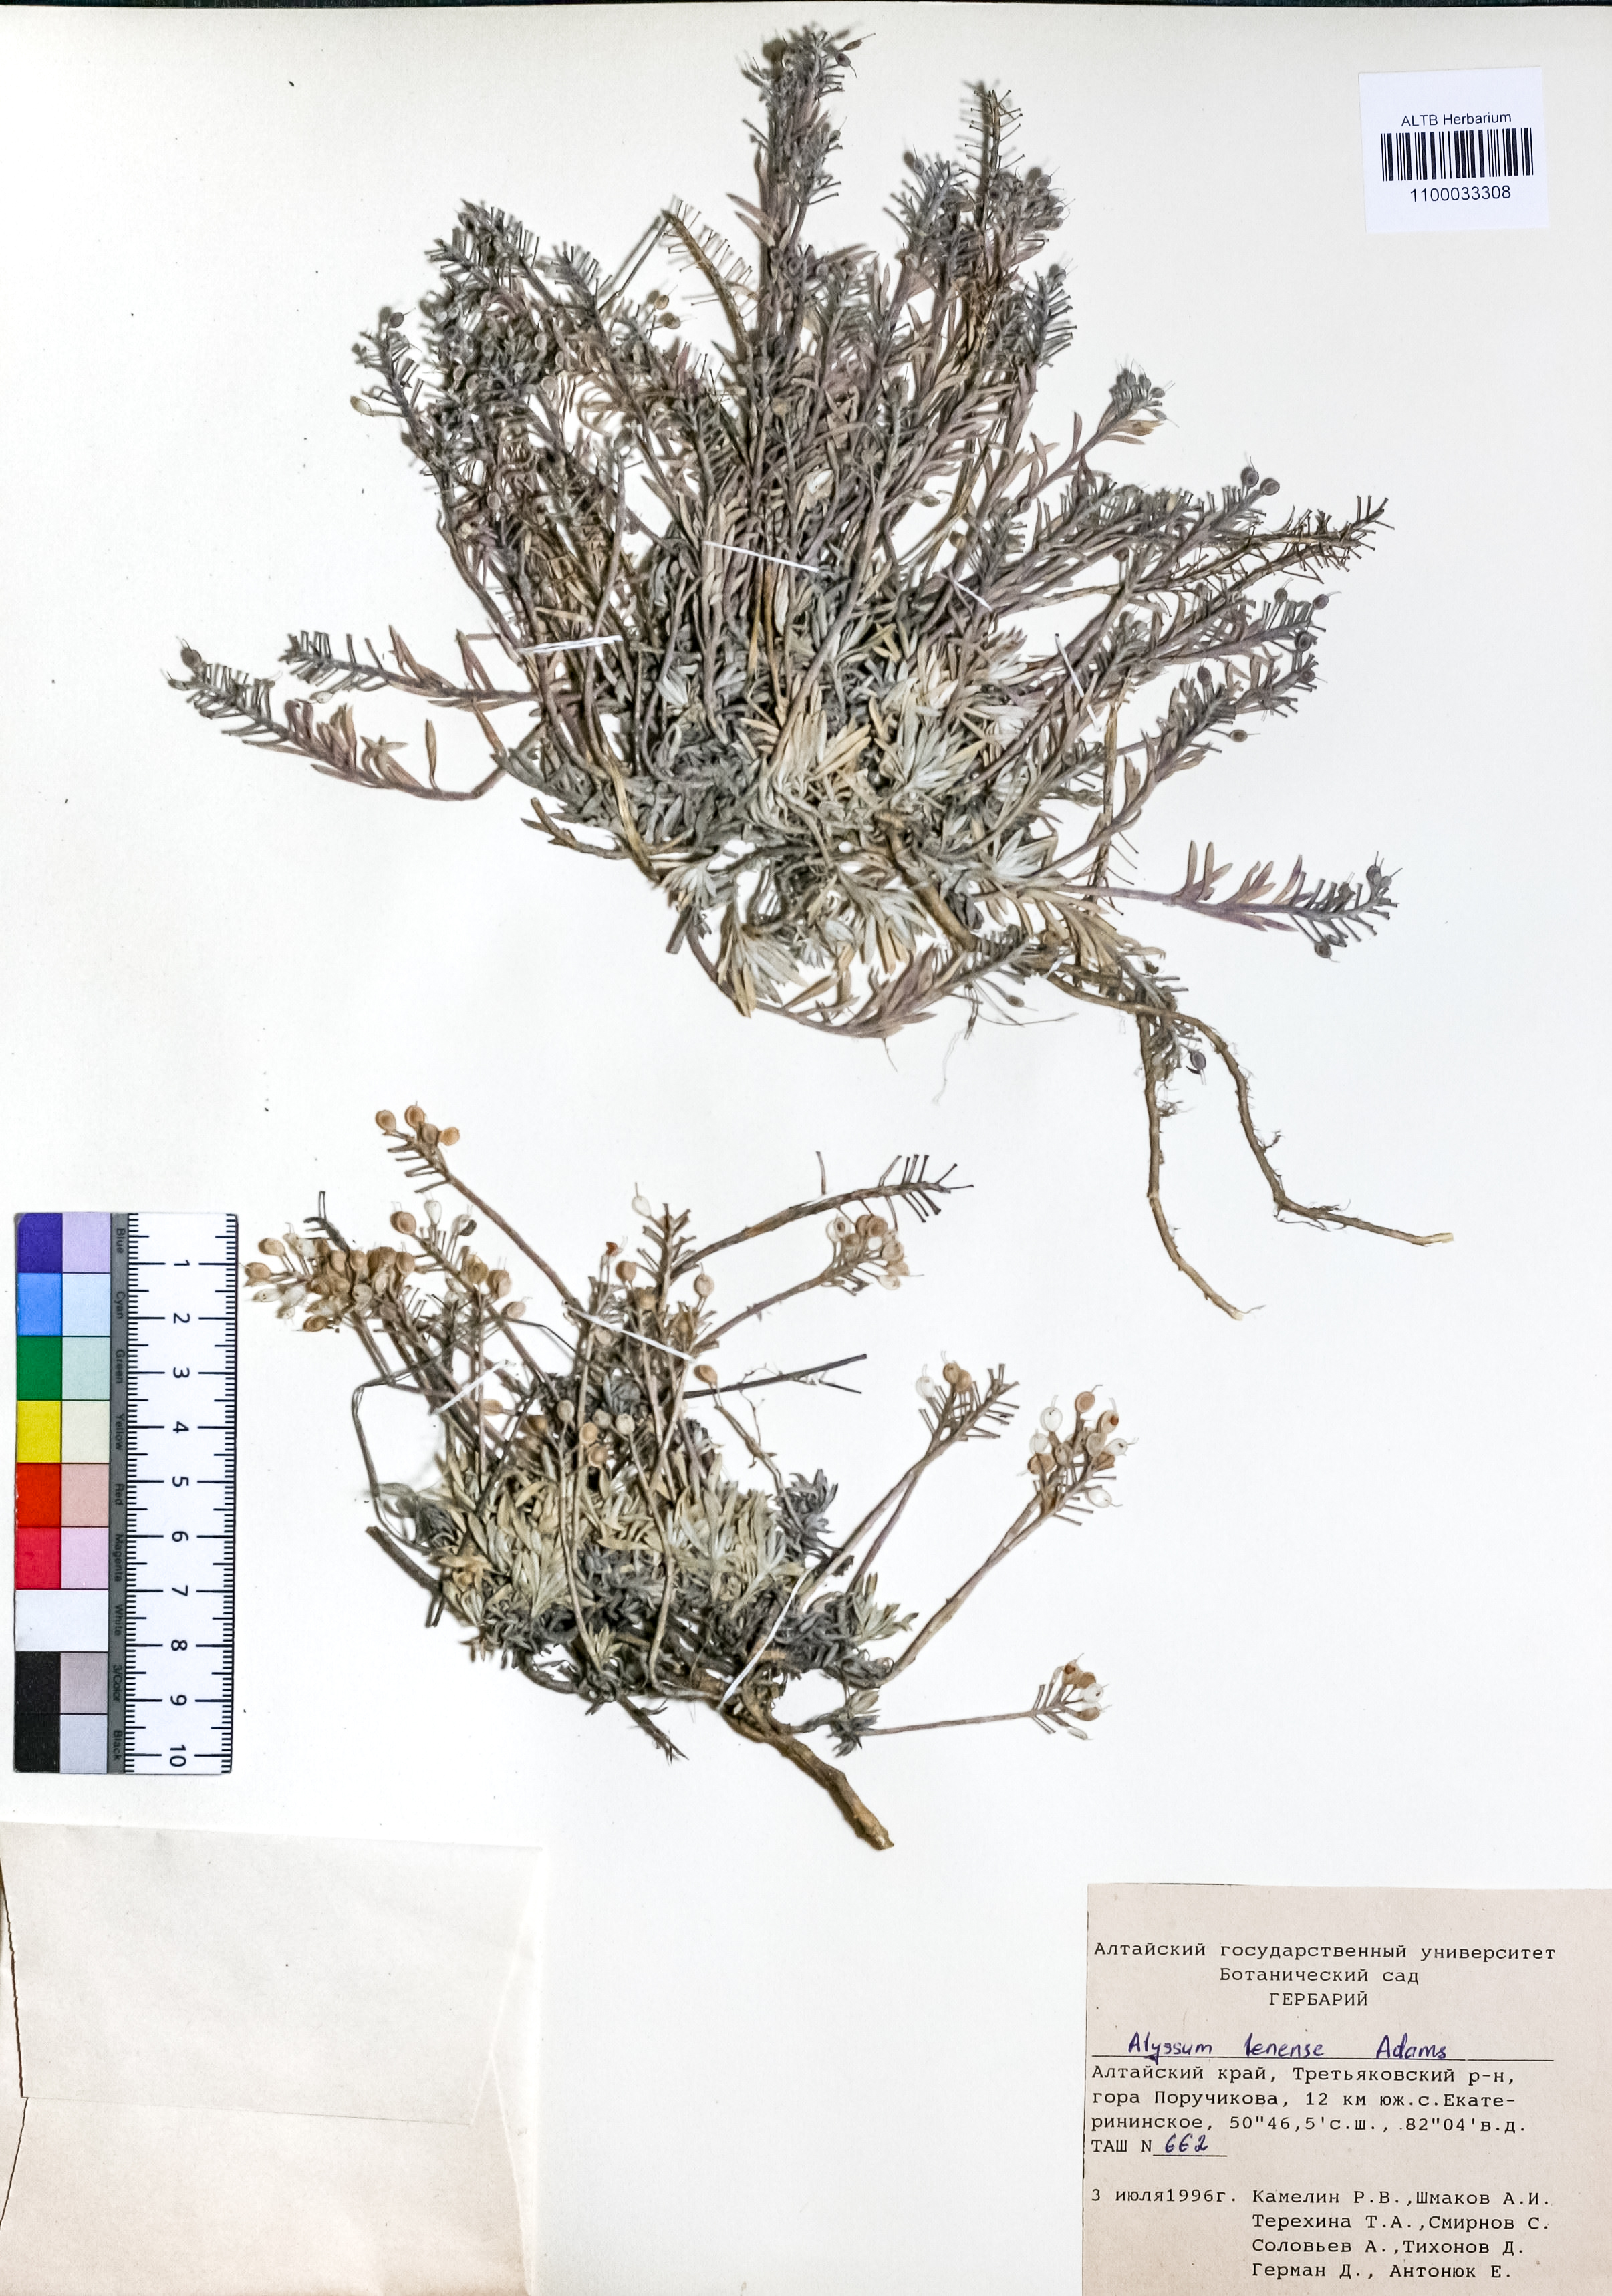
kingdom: Plantae
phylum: Tracheophyta
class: Magnoliopsida
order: Brassicales
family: Brassicaceae
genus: Alyssum
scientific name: Alyssum lenense
